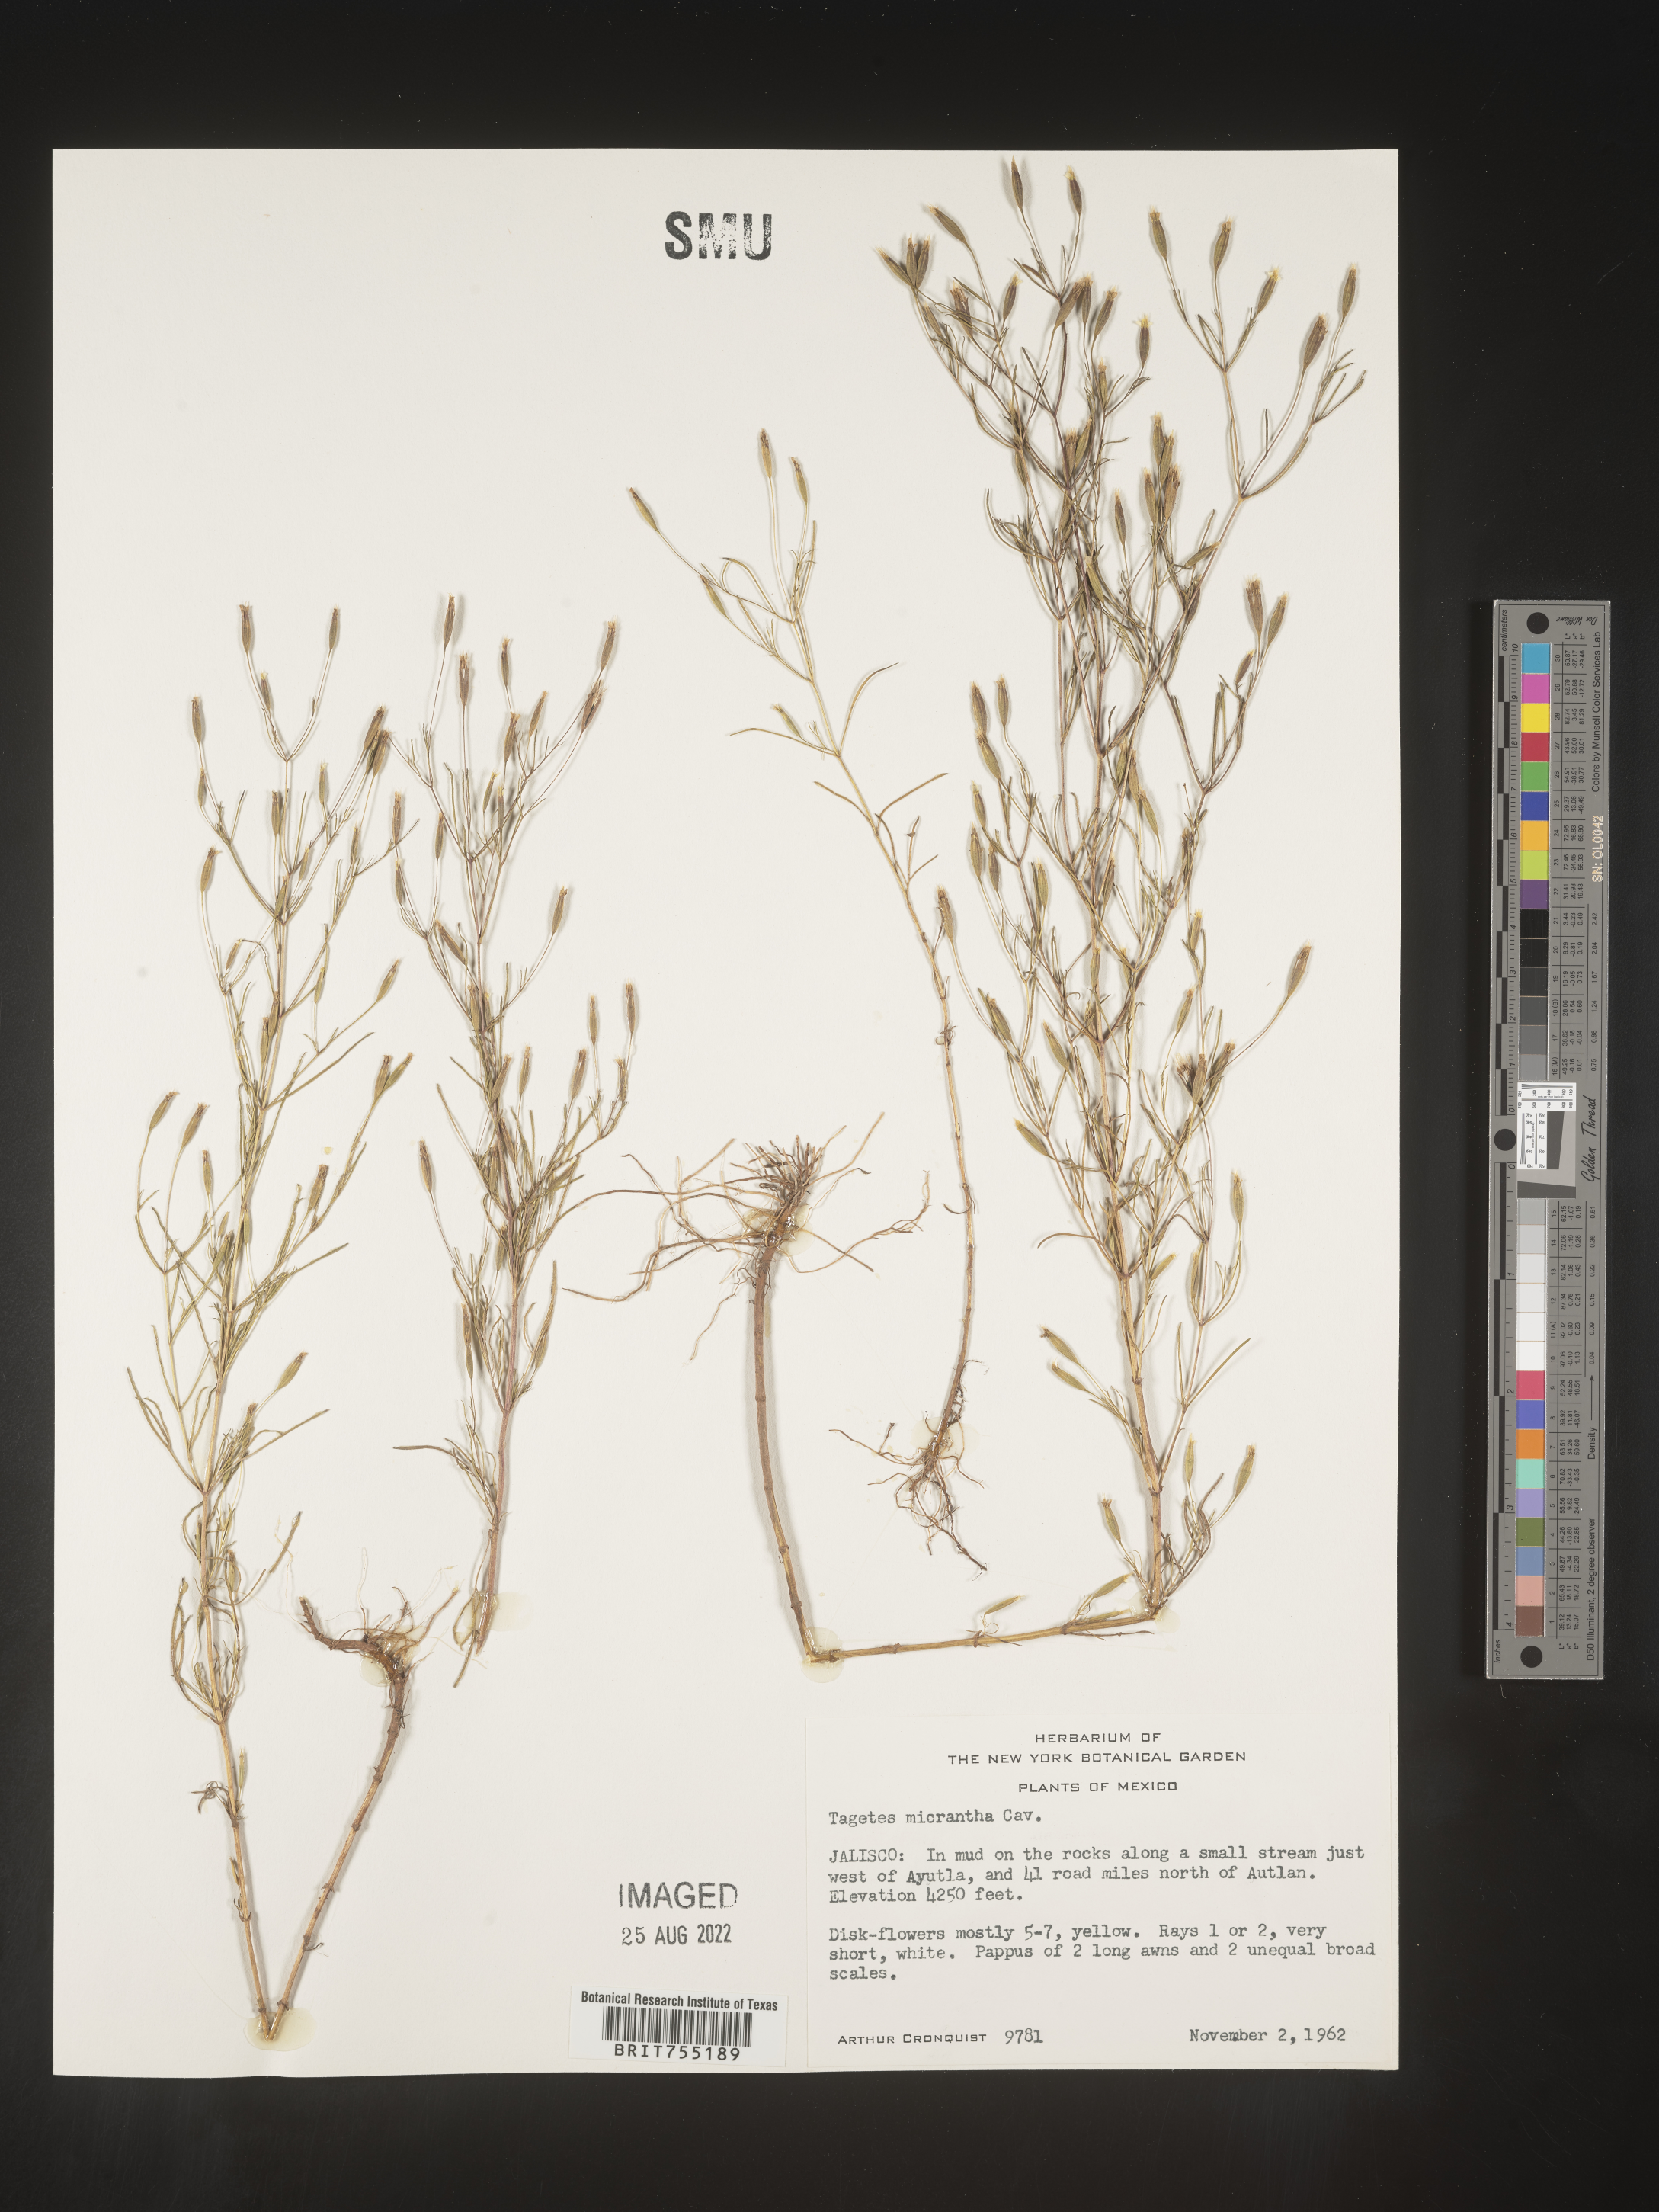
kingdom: Plantae
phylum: Tracheophyta
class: Magnoliopsida
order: Asterales
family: Asteraceae
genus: Tagetes
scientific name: Tagetes
